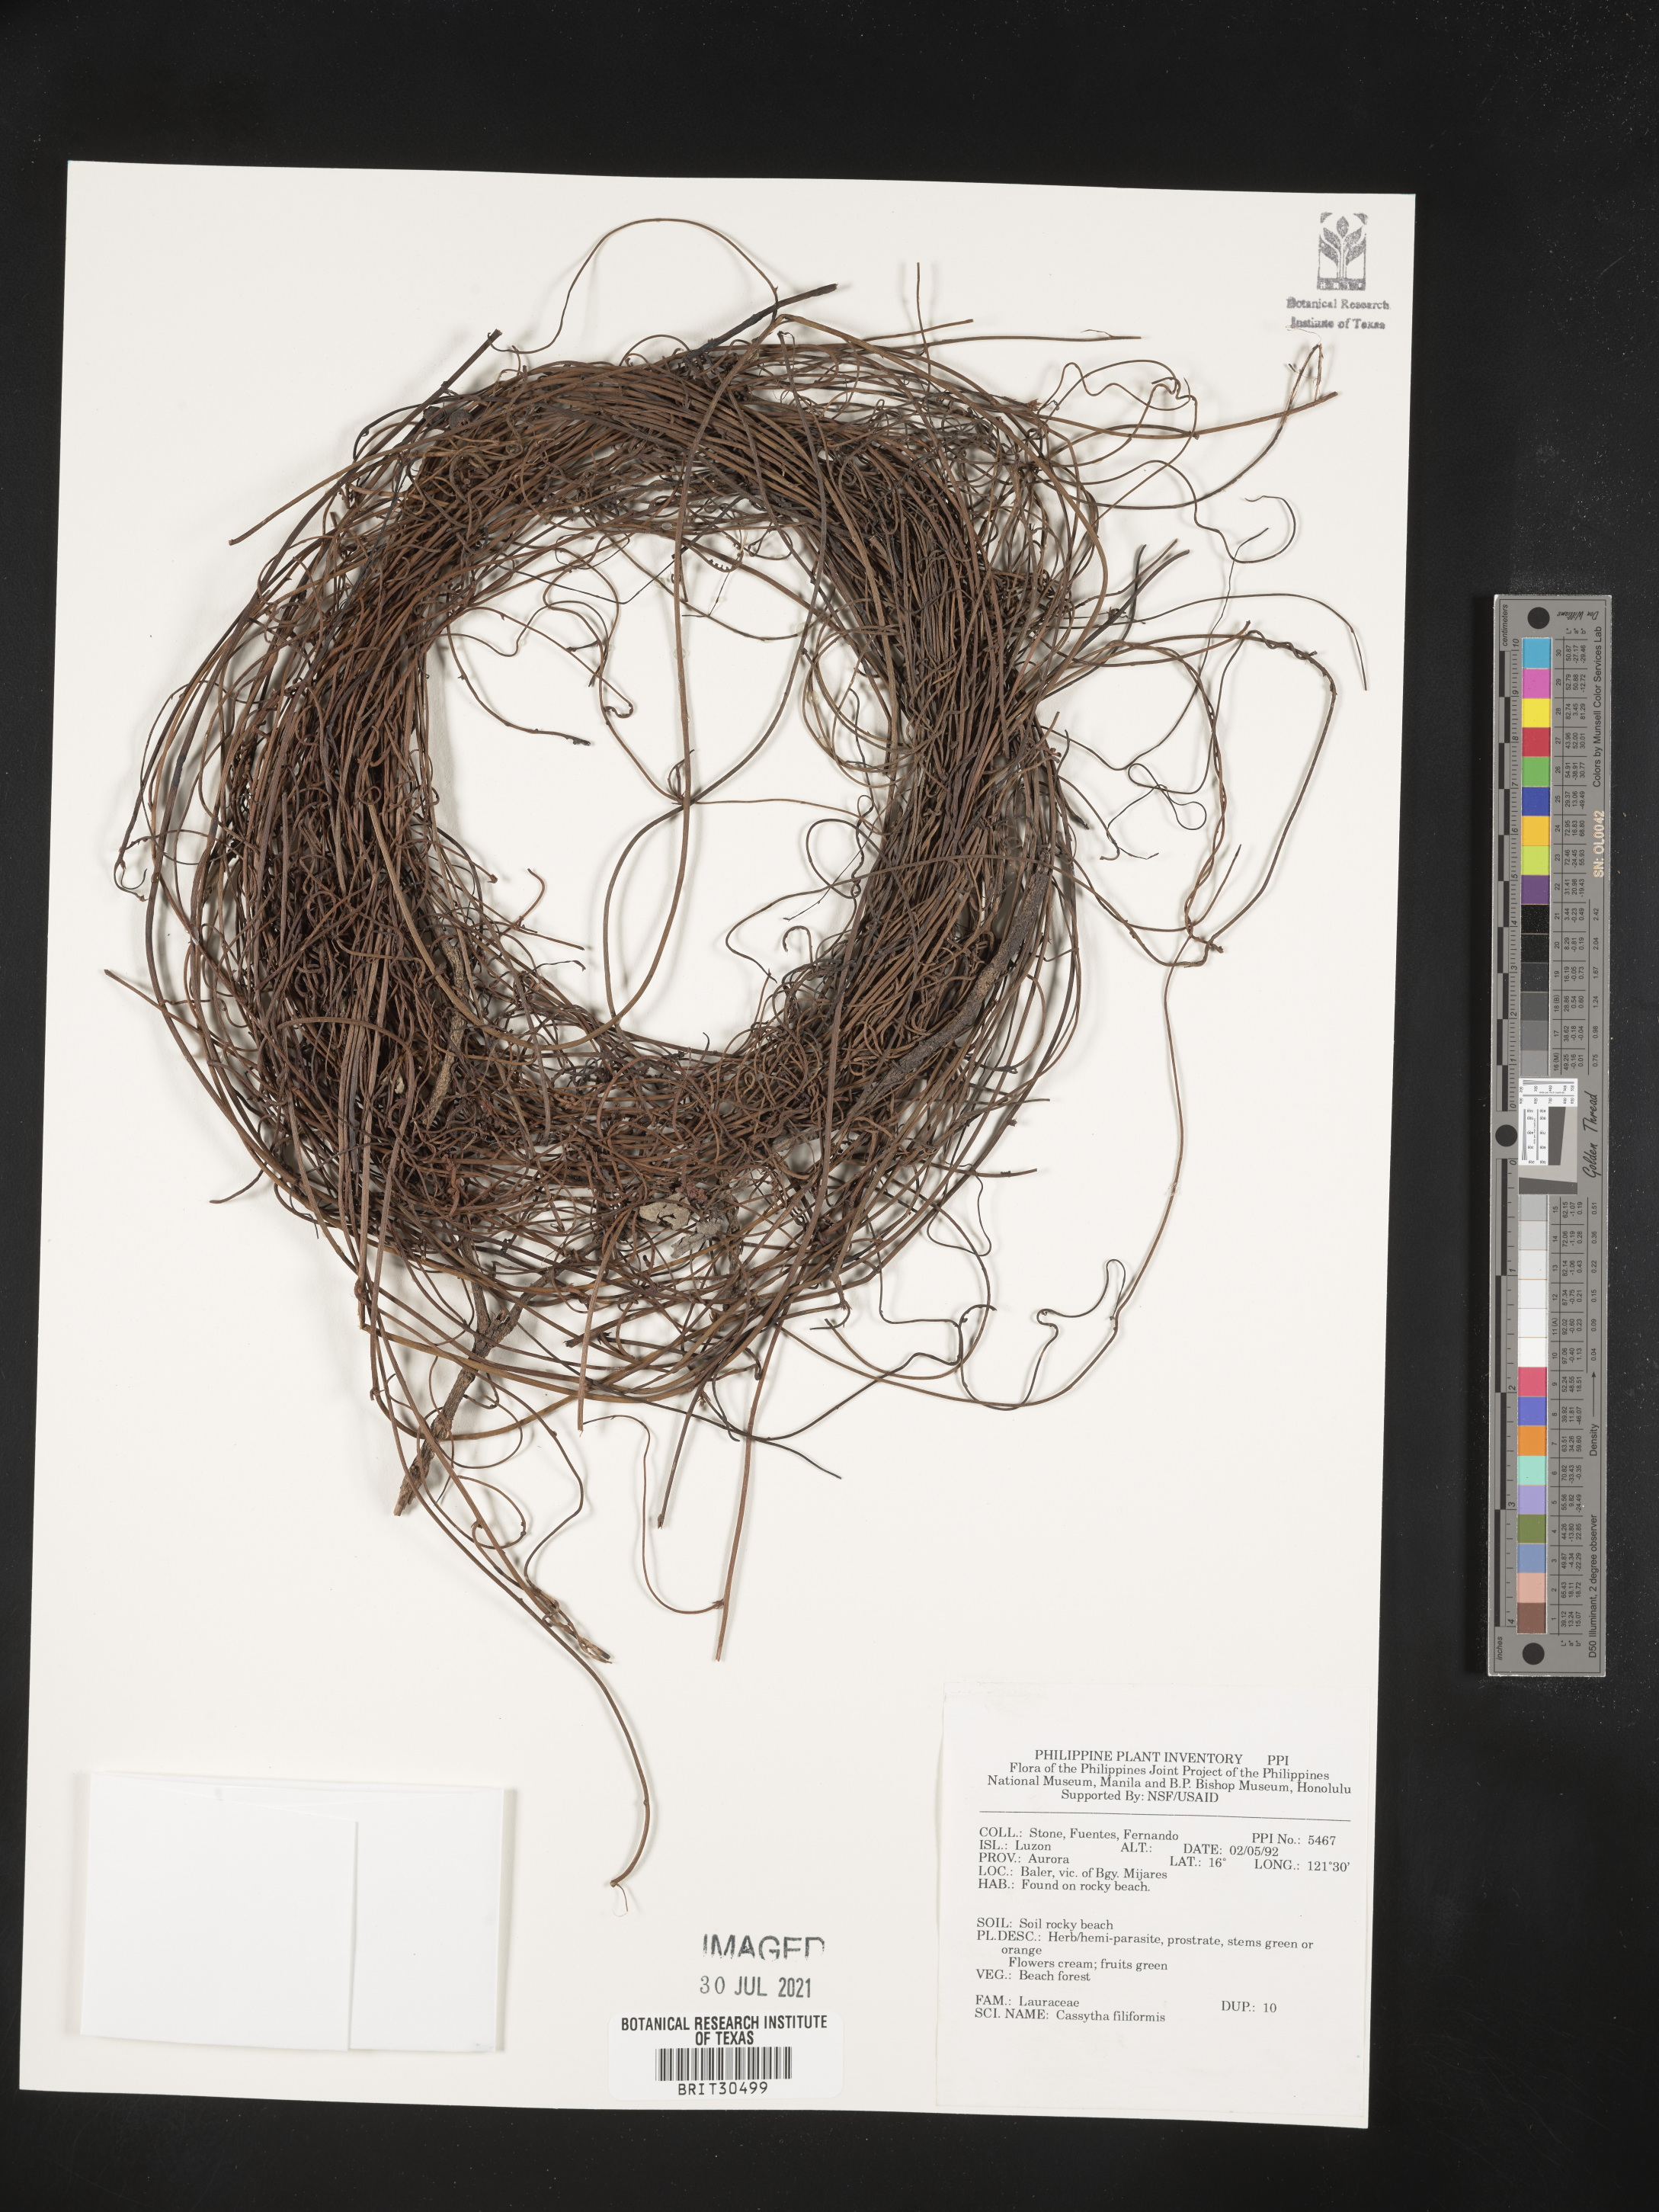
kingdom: Plantae
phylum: Tracheophyta
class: Magnoliopsida
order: Laurales
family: Lauraceae
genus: Cassytha
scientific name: Cassytha filiformis
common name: Dodder-laurel
